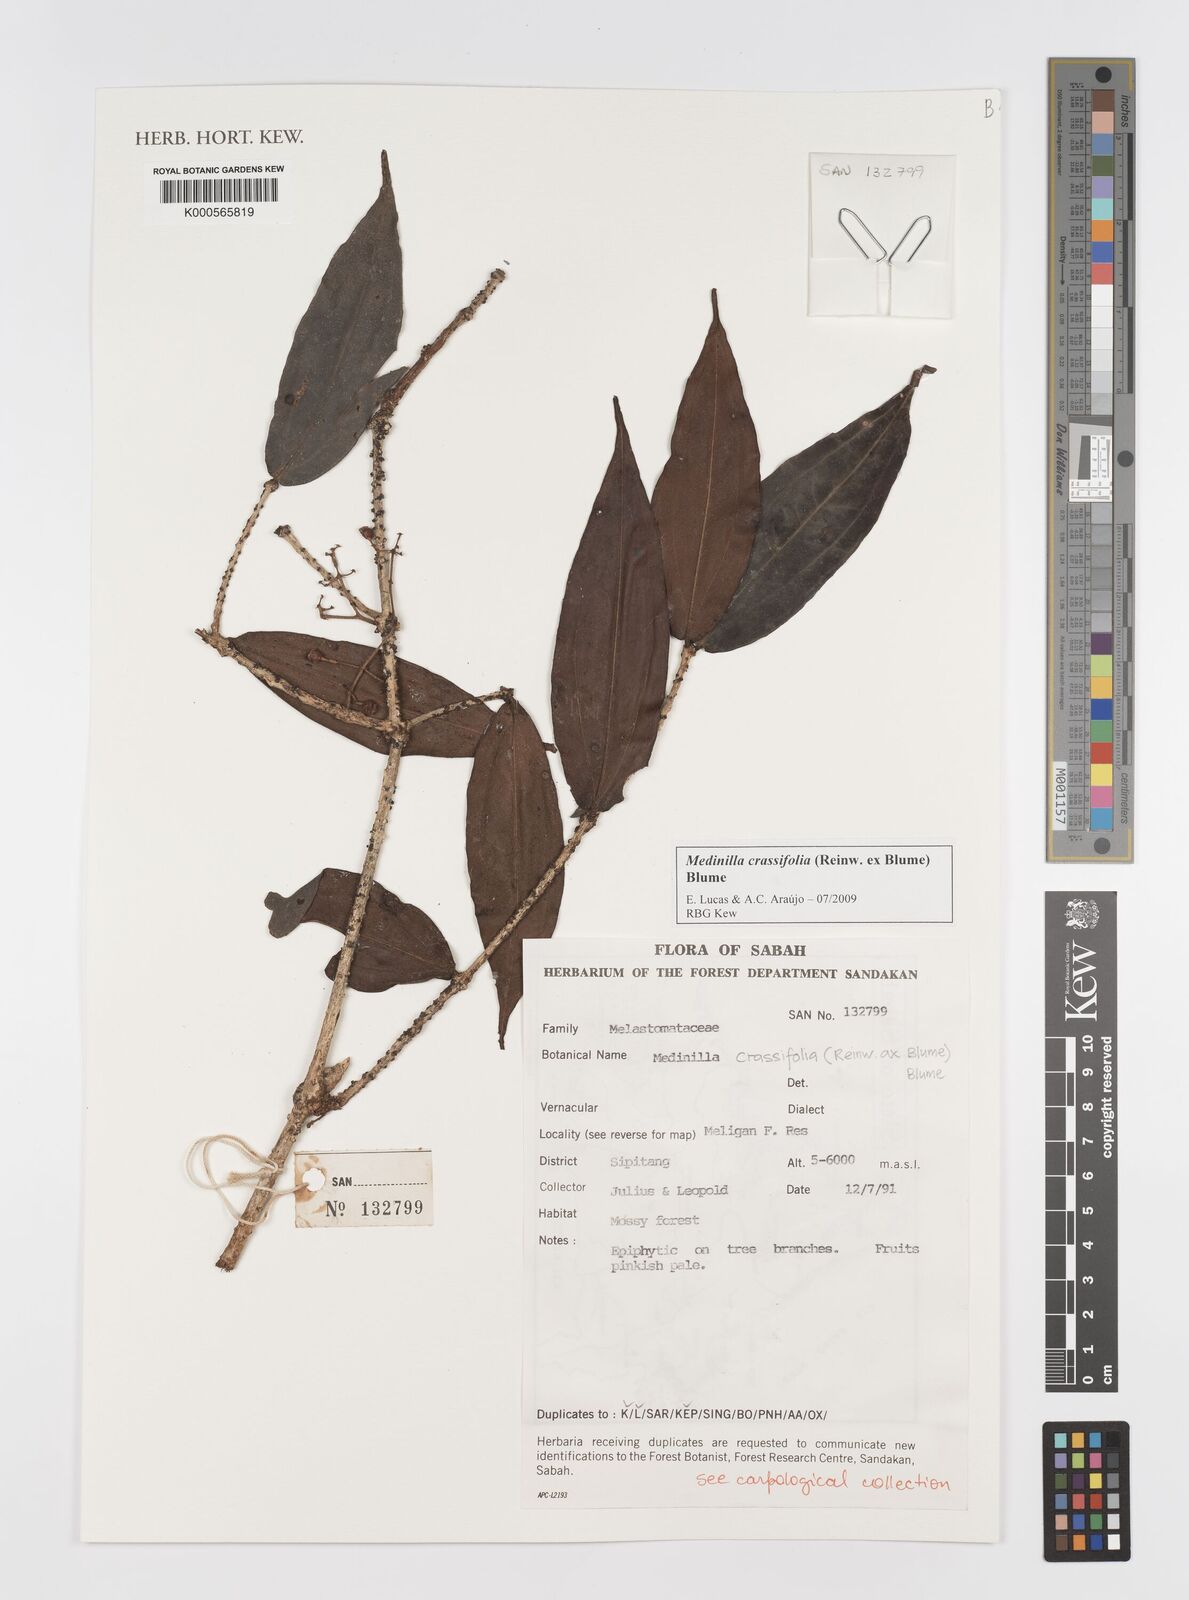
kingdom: Plantae
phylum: Tracheophyta
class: Magnoliopsida
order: Myrtales
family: Melastomataceae
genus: Medinilla
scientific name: Medinilla crassifolia
